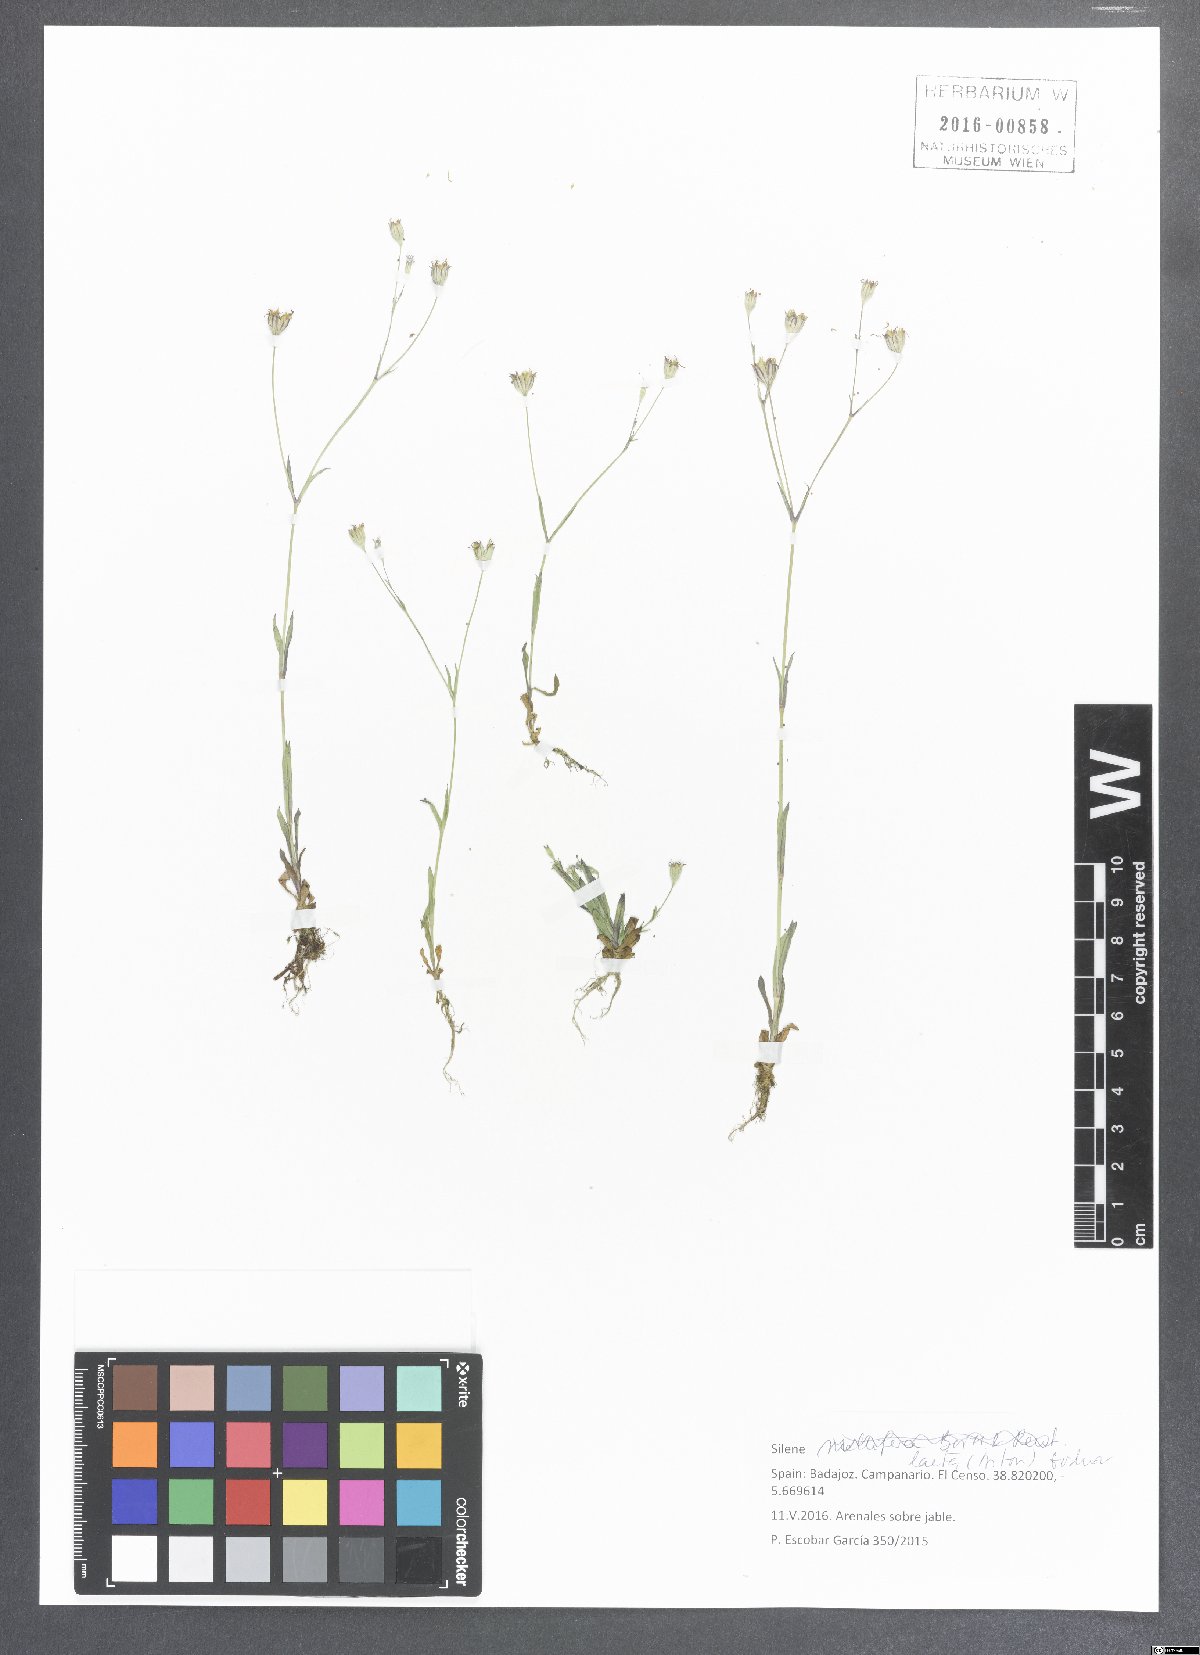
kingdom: Plantae
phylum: Tracheophyta
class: Magnoliopsida
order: Caryophyllales
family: Caryophyllaceae
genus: Eudianthe
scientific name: Eudianthe laeta
